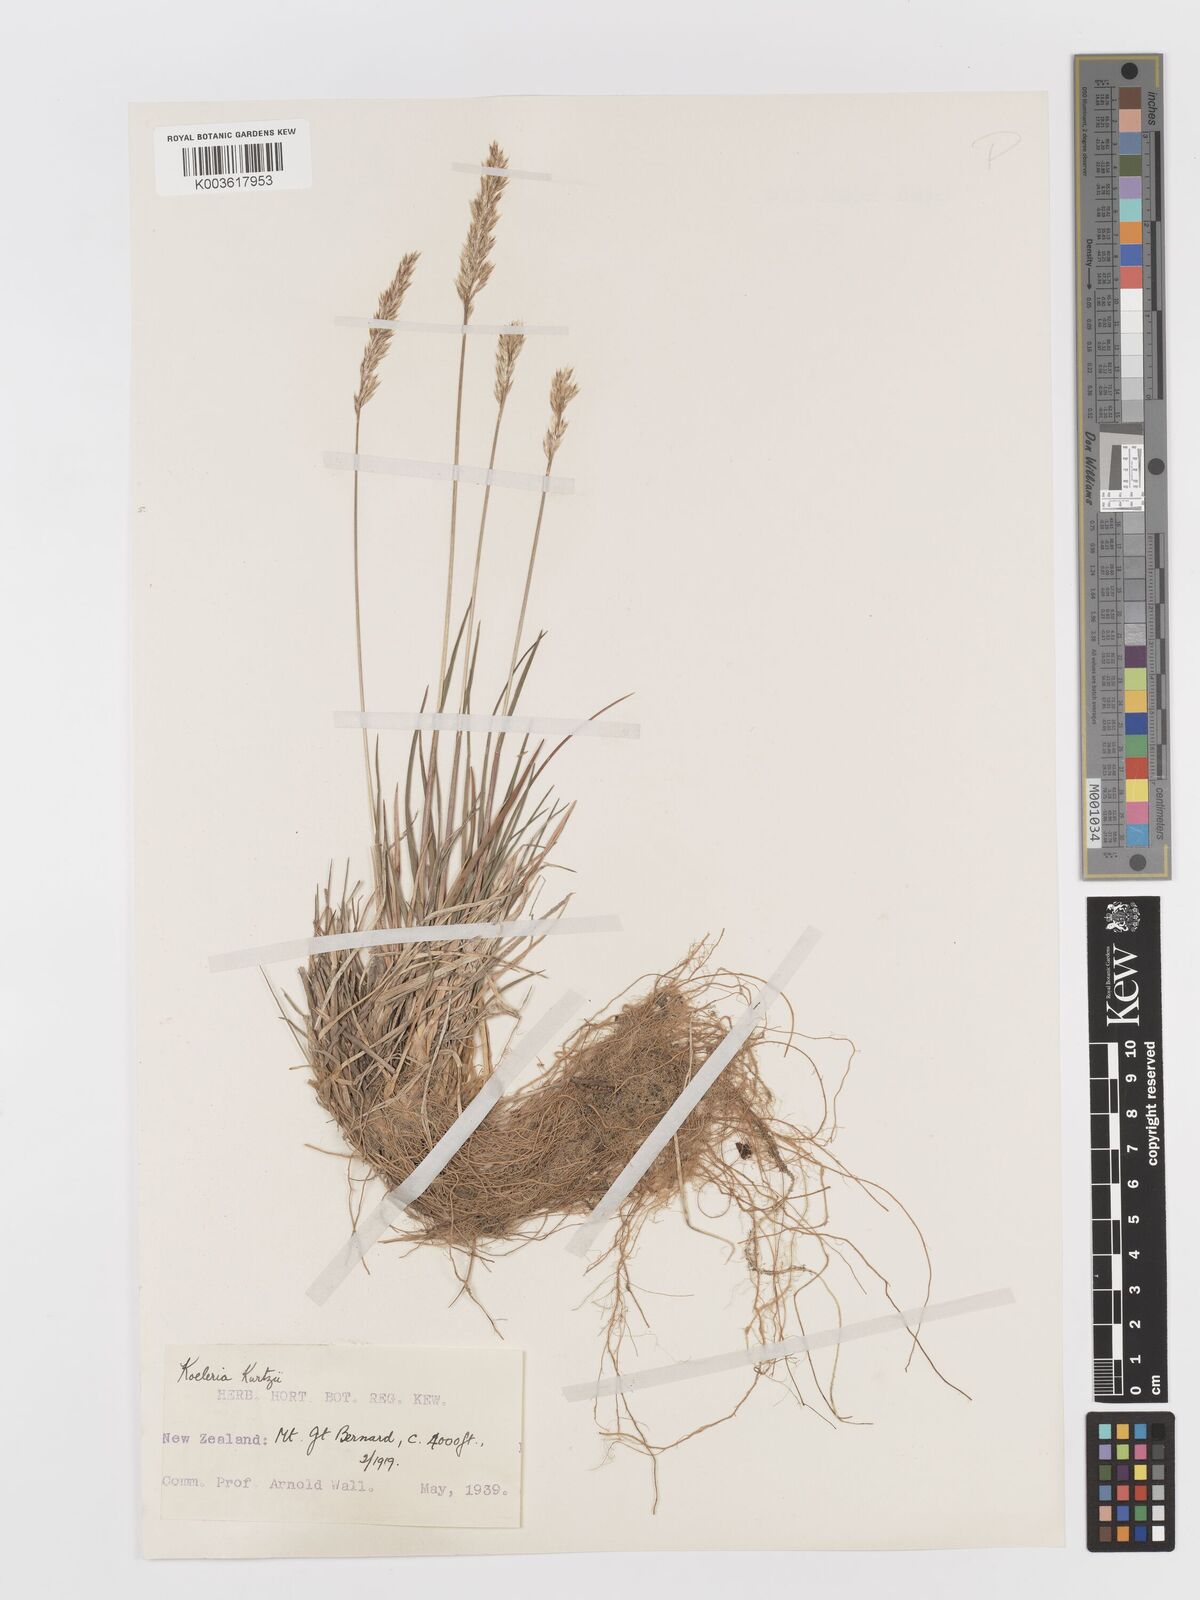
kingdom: Plantae
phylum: Tracheophyta
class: Liliopsida
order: Poales
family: Poaceae
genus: Koeleria
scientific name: Koeleria kurtzii
